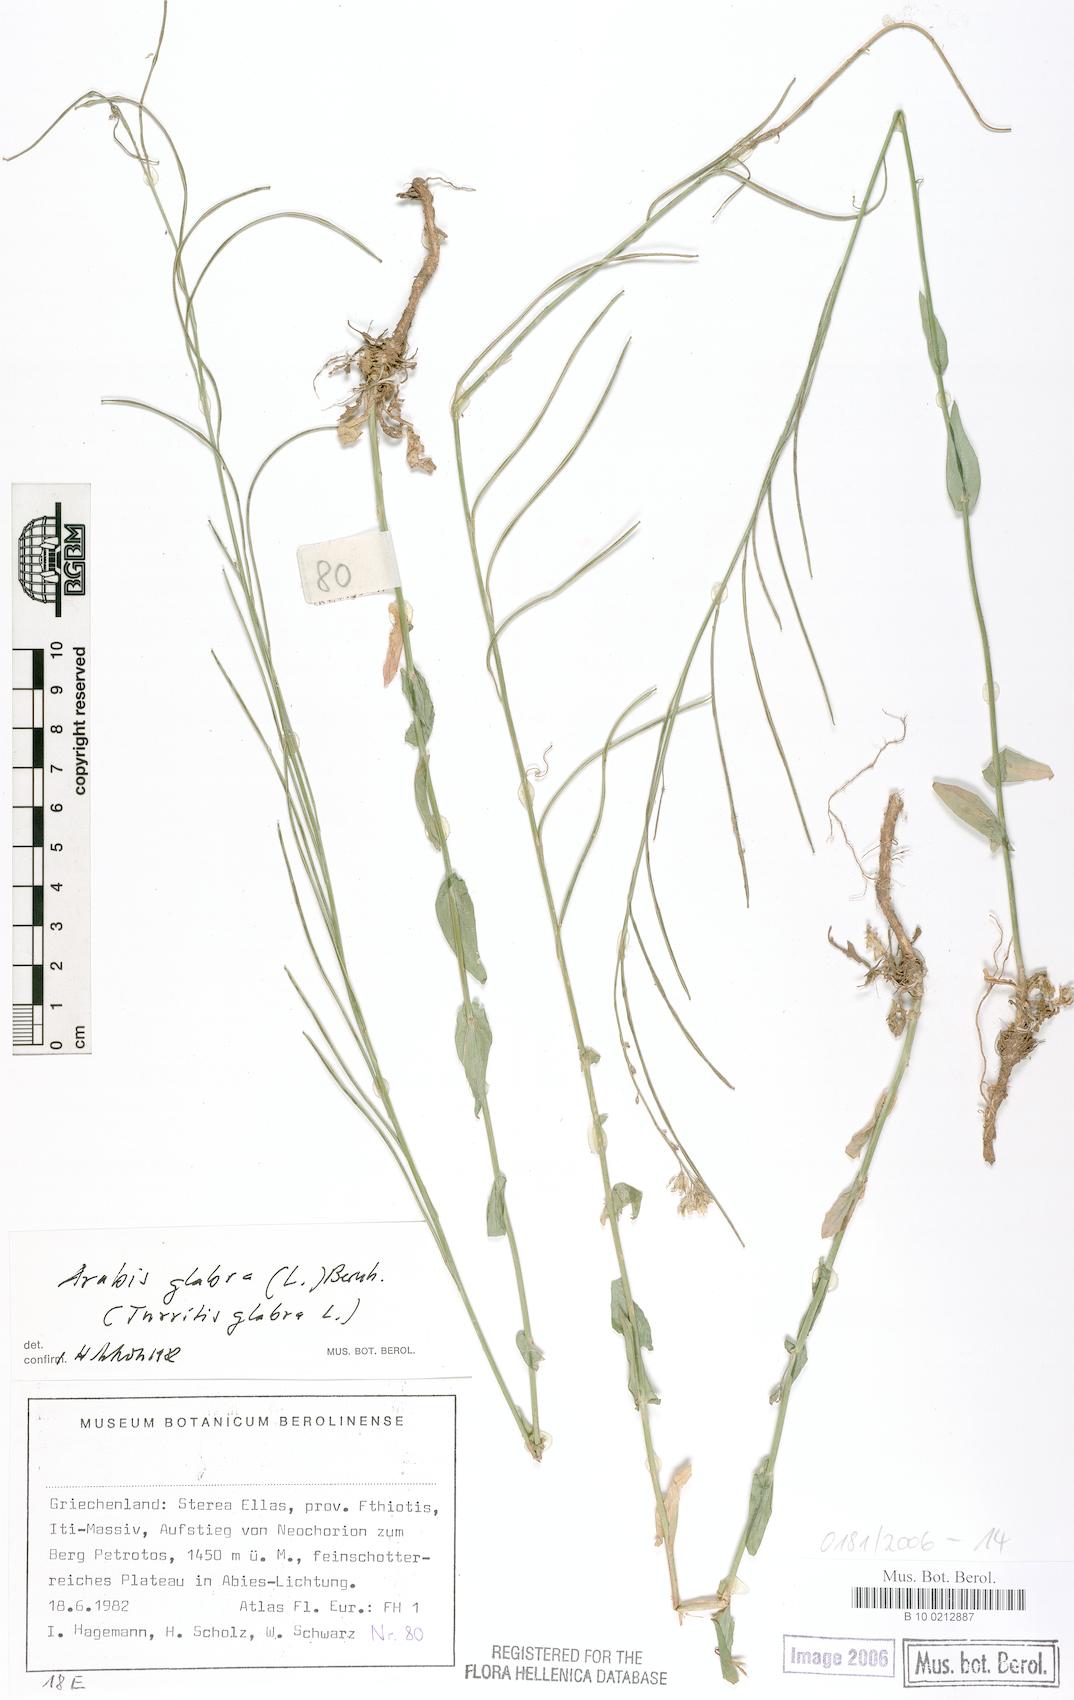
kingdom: Plantae
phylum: Tracheophyta
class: Magnoliopsida
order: Brassicales
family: Brassicaceae
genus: Turritis
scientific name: Turritis glabra
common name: Tower rockcress
